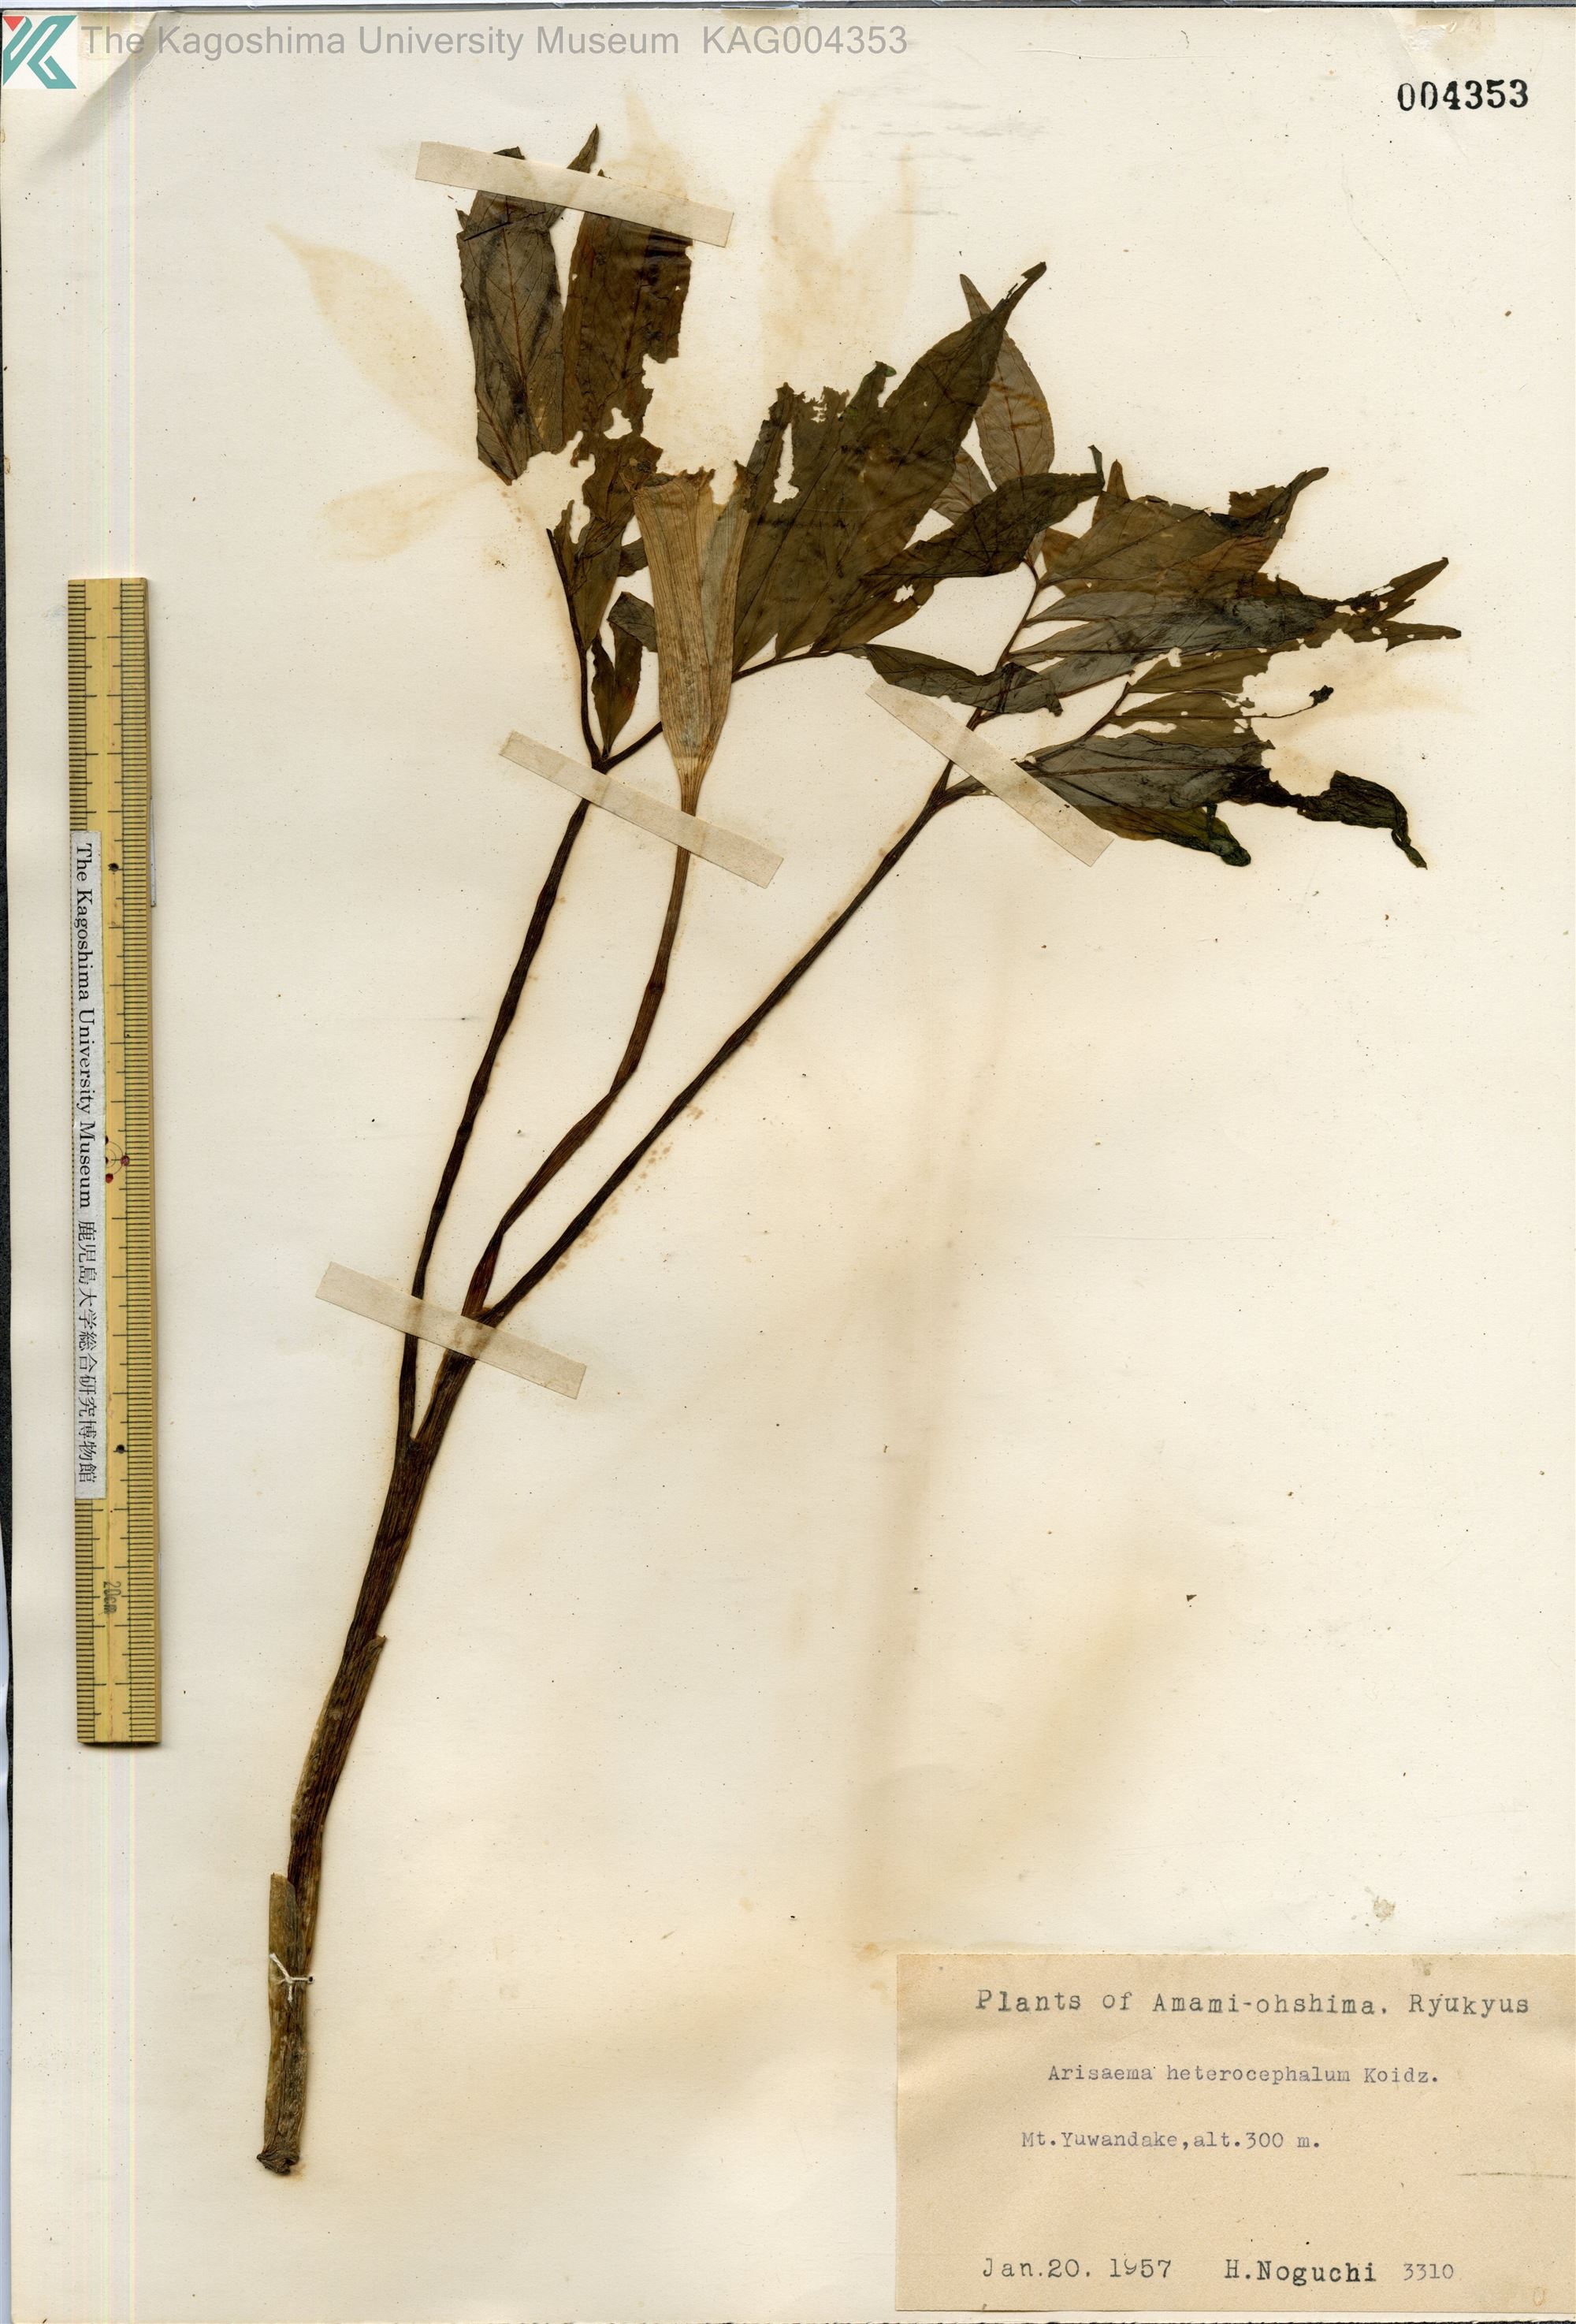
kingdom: Plantae
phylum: Tracheophyta
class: Liliopsida
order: Alismatales
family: Araceae
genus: Arisaema
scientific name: Arisaema heterocephalum
